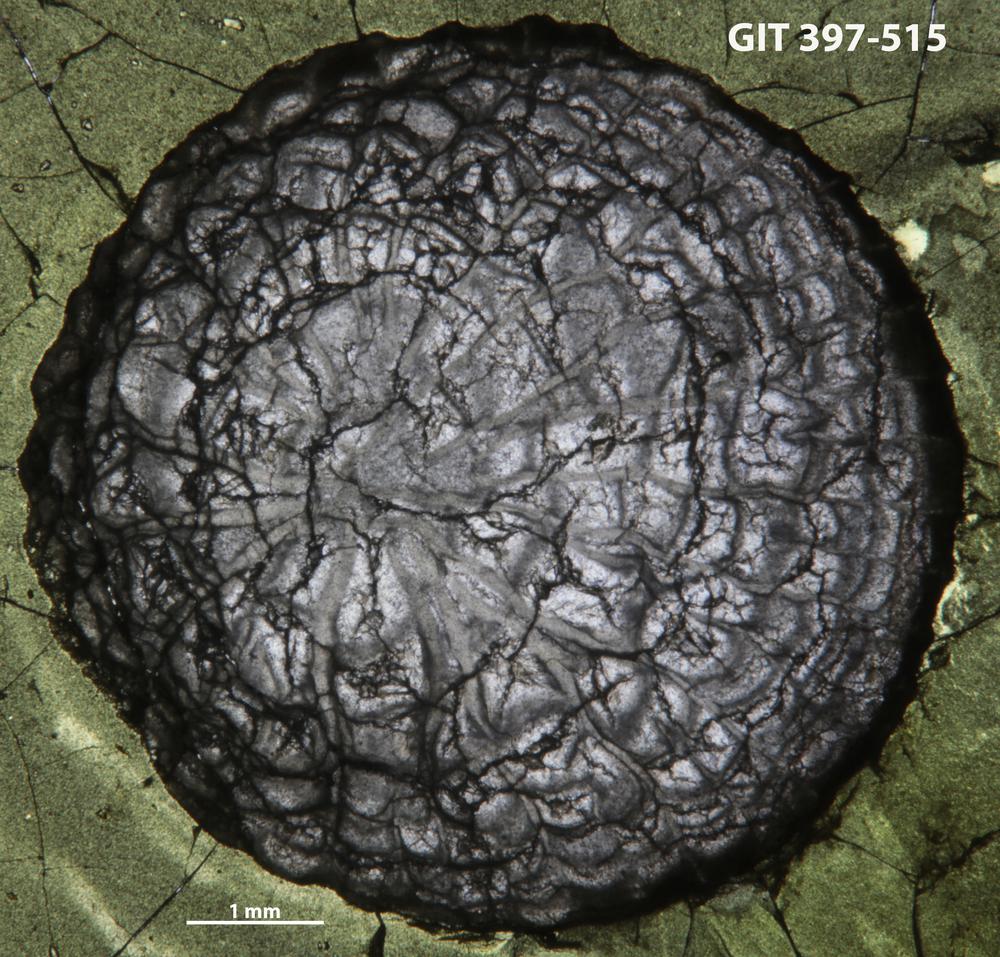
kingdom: Animalia
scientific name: Animalia
